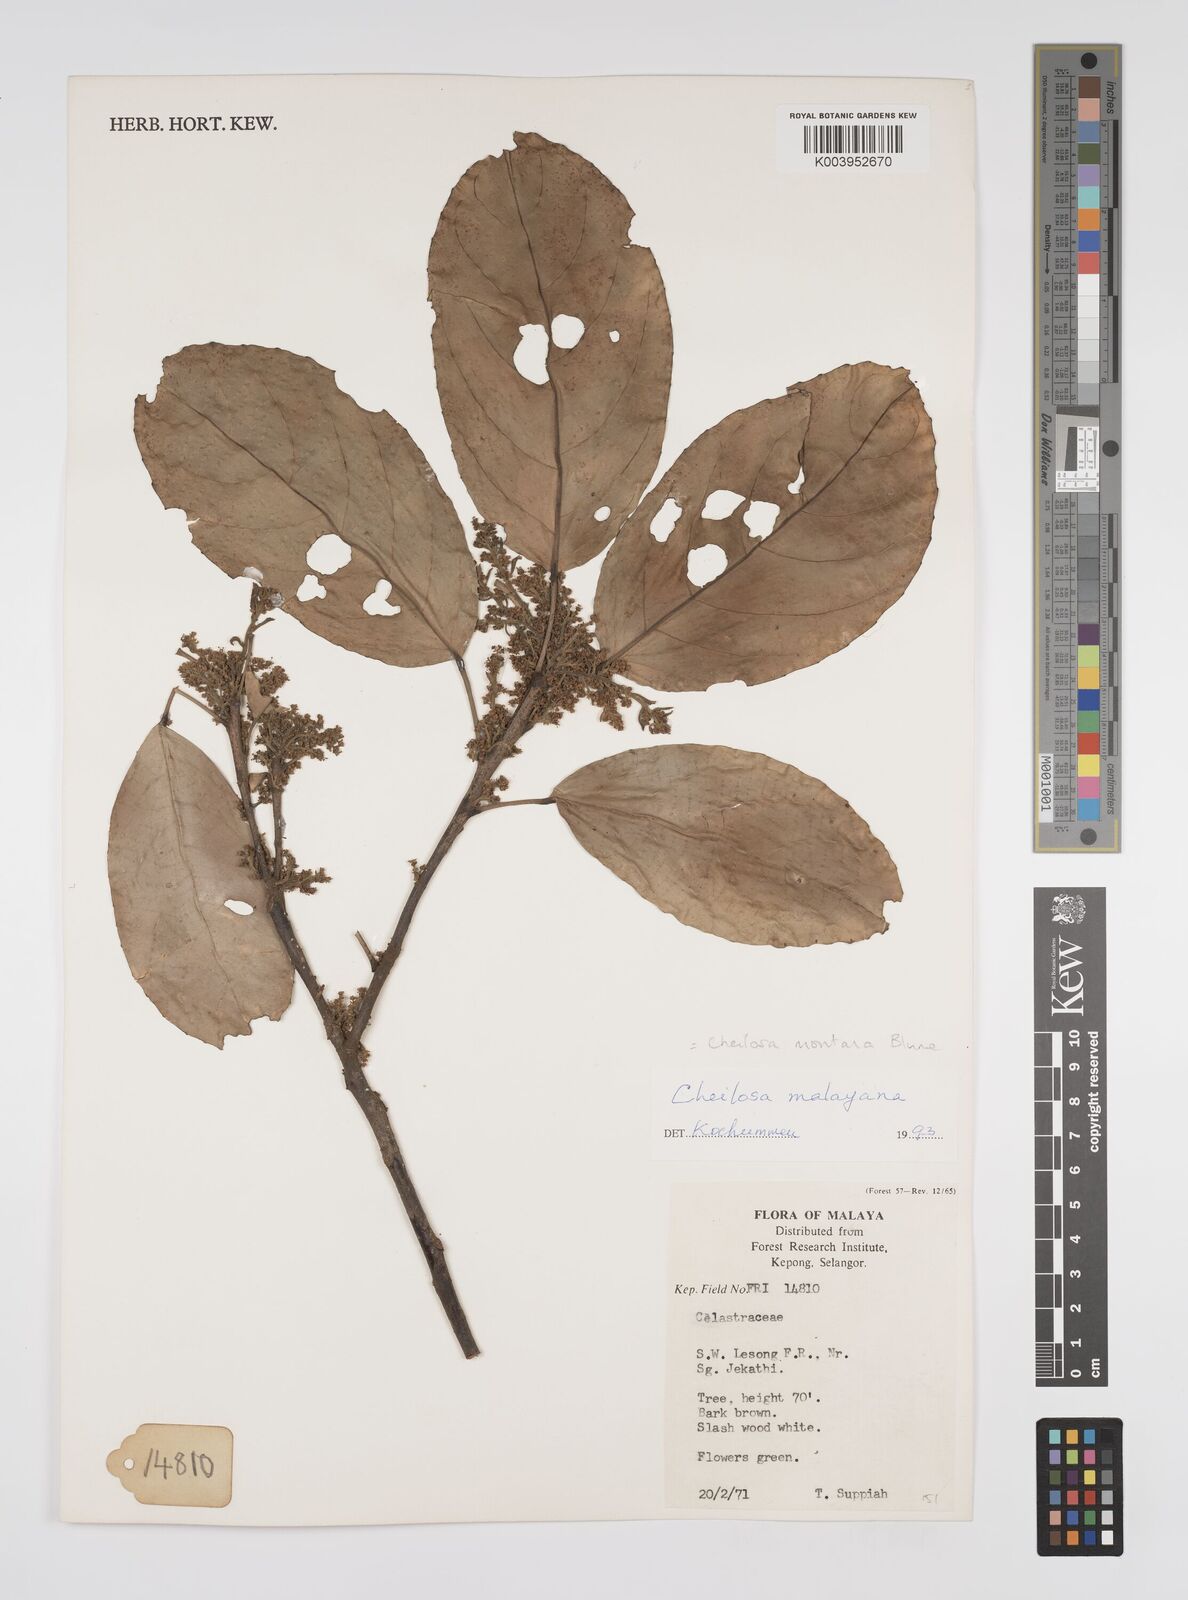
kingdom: Plantae
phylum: Tracheophyta
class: Magnoliopsida
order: Malpighiales
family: Euphorbiaceae
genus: Cheilosa
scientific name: Cheilosa montana
